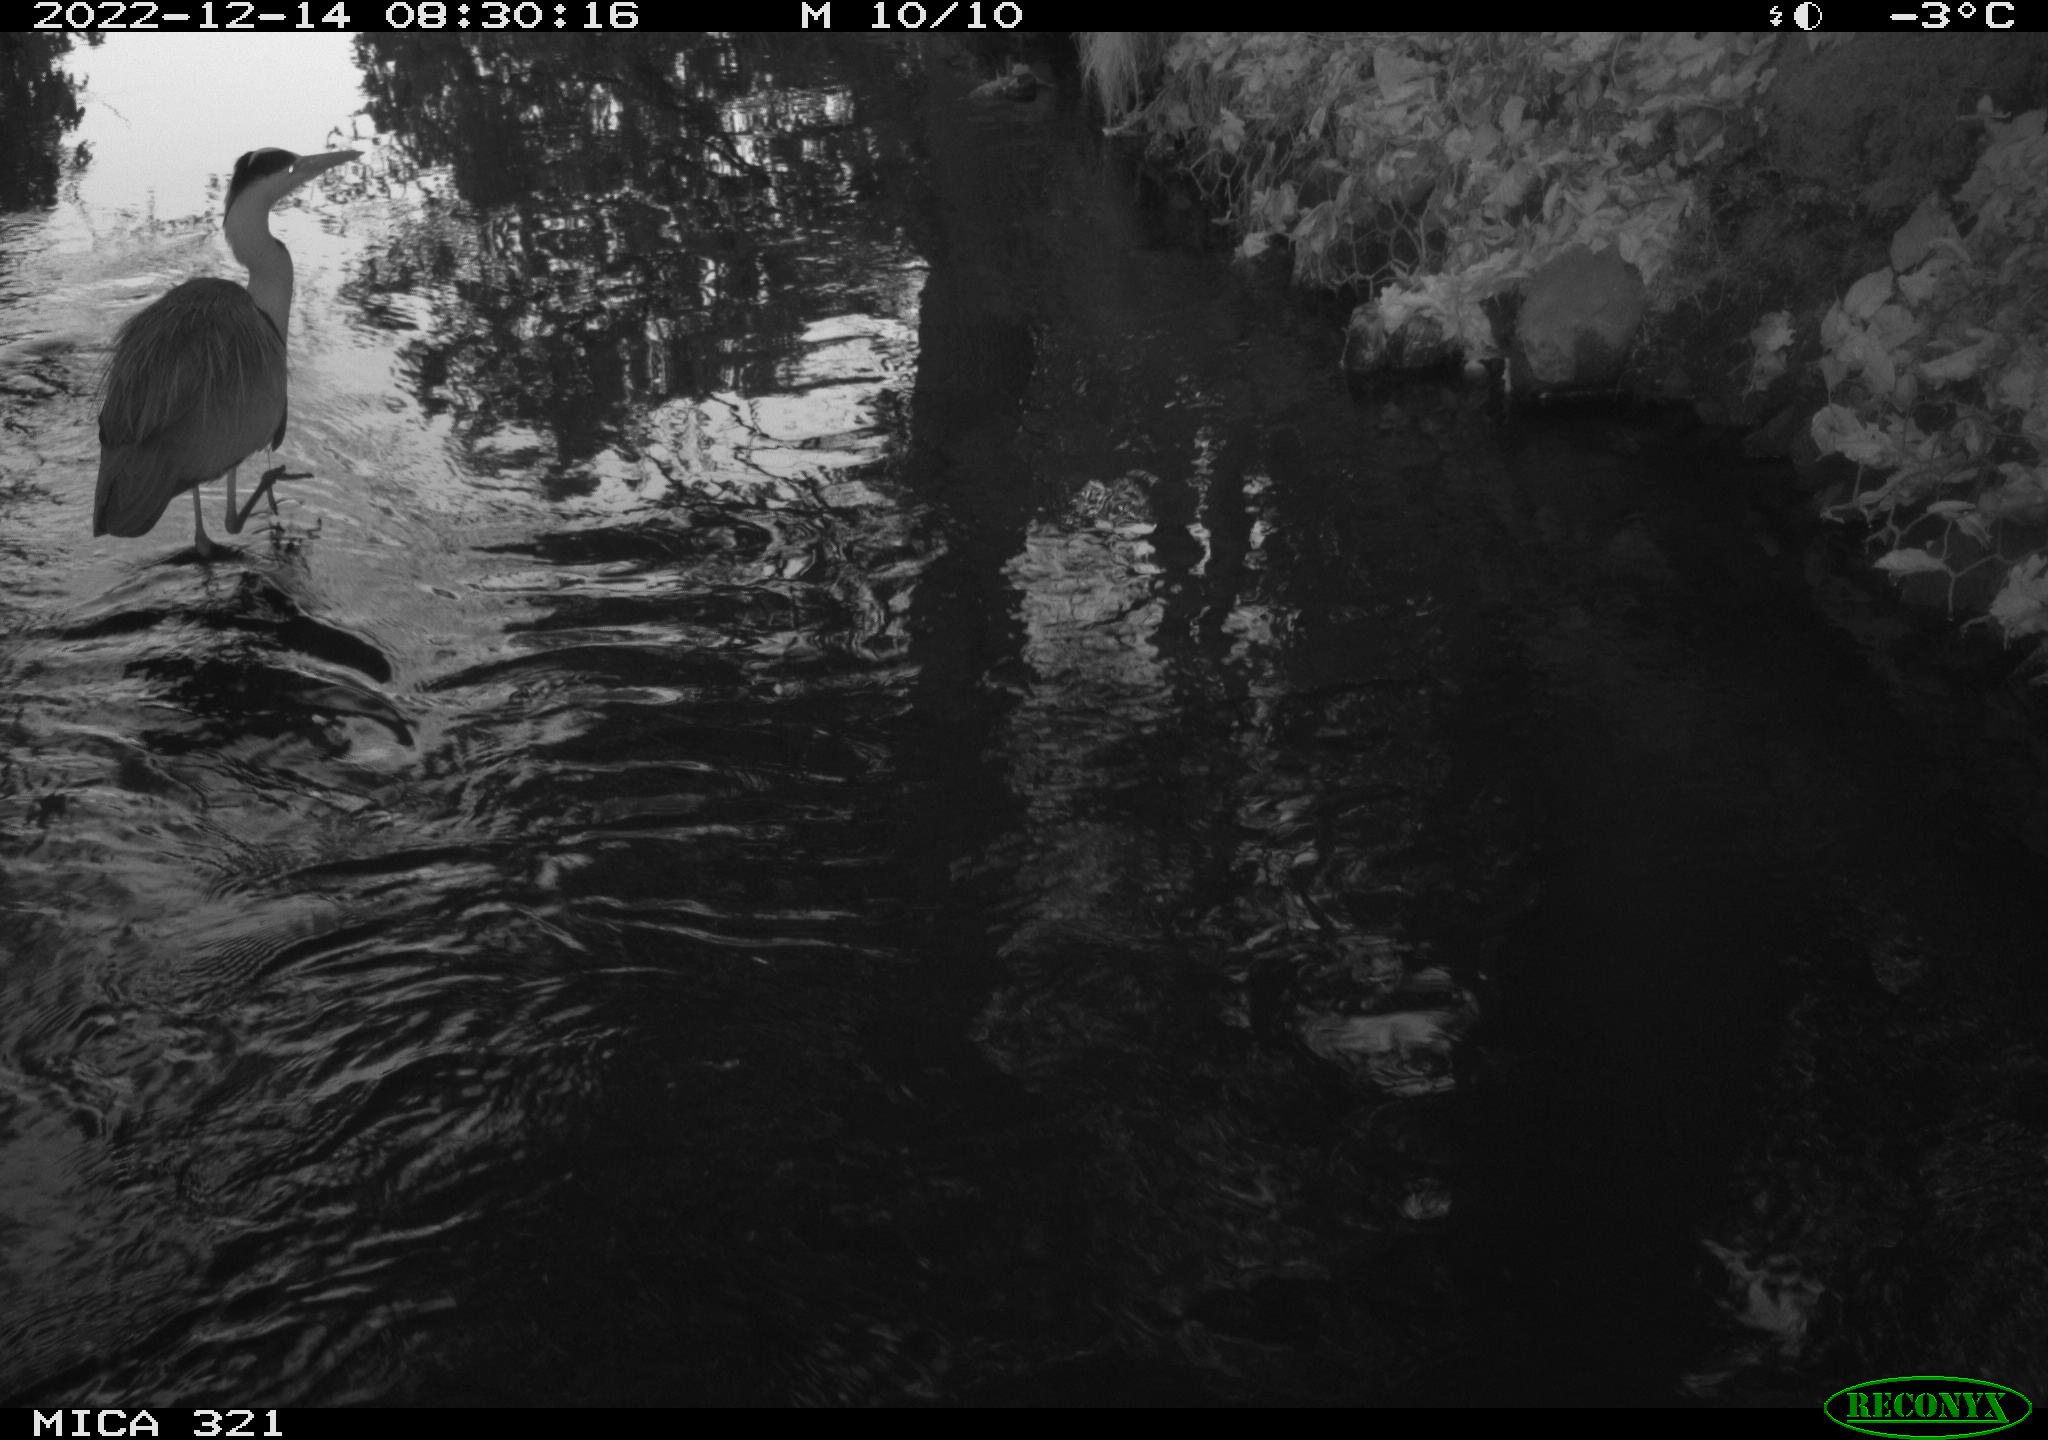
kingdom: Animalia
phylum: Chordata
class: Aves
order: Pelecaniformes
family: Ardeidae
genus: Ardea
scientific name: Ardea cinerea
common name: Grey heron
